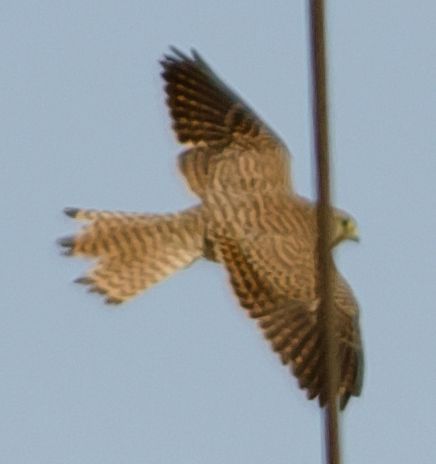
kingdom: Animalia
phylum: Chordata
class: Aves
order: Falconiformes
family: Falconidae
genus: Falco
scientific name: Falco tinnunculus
